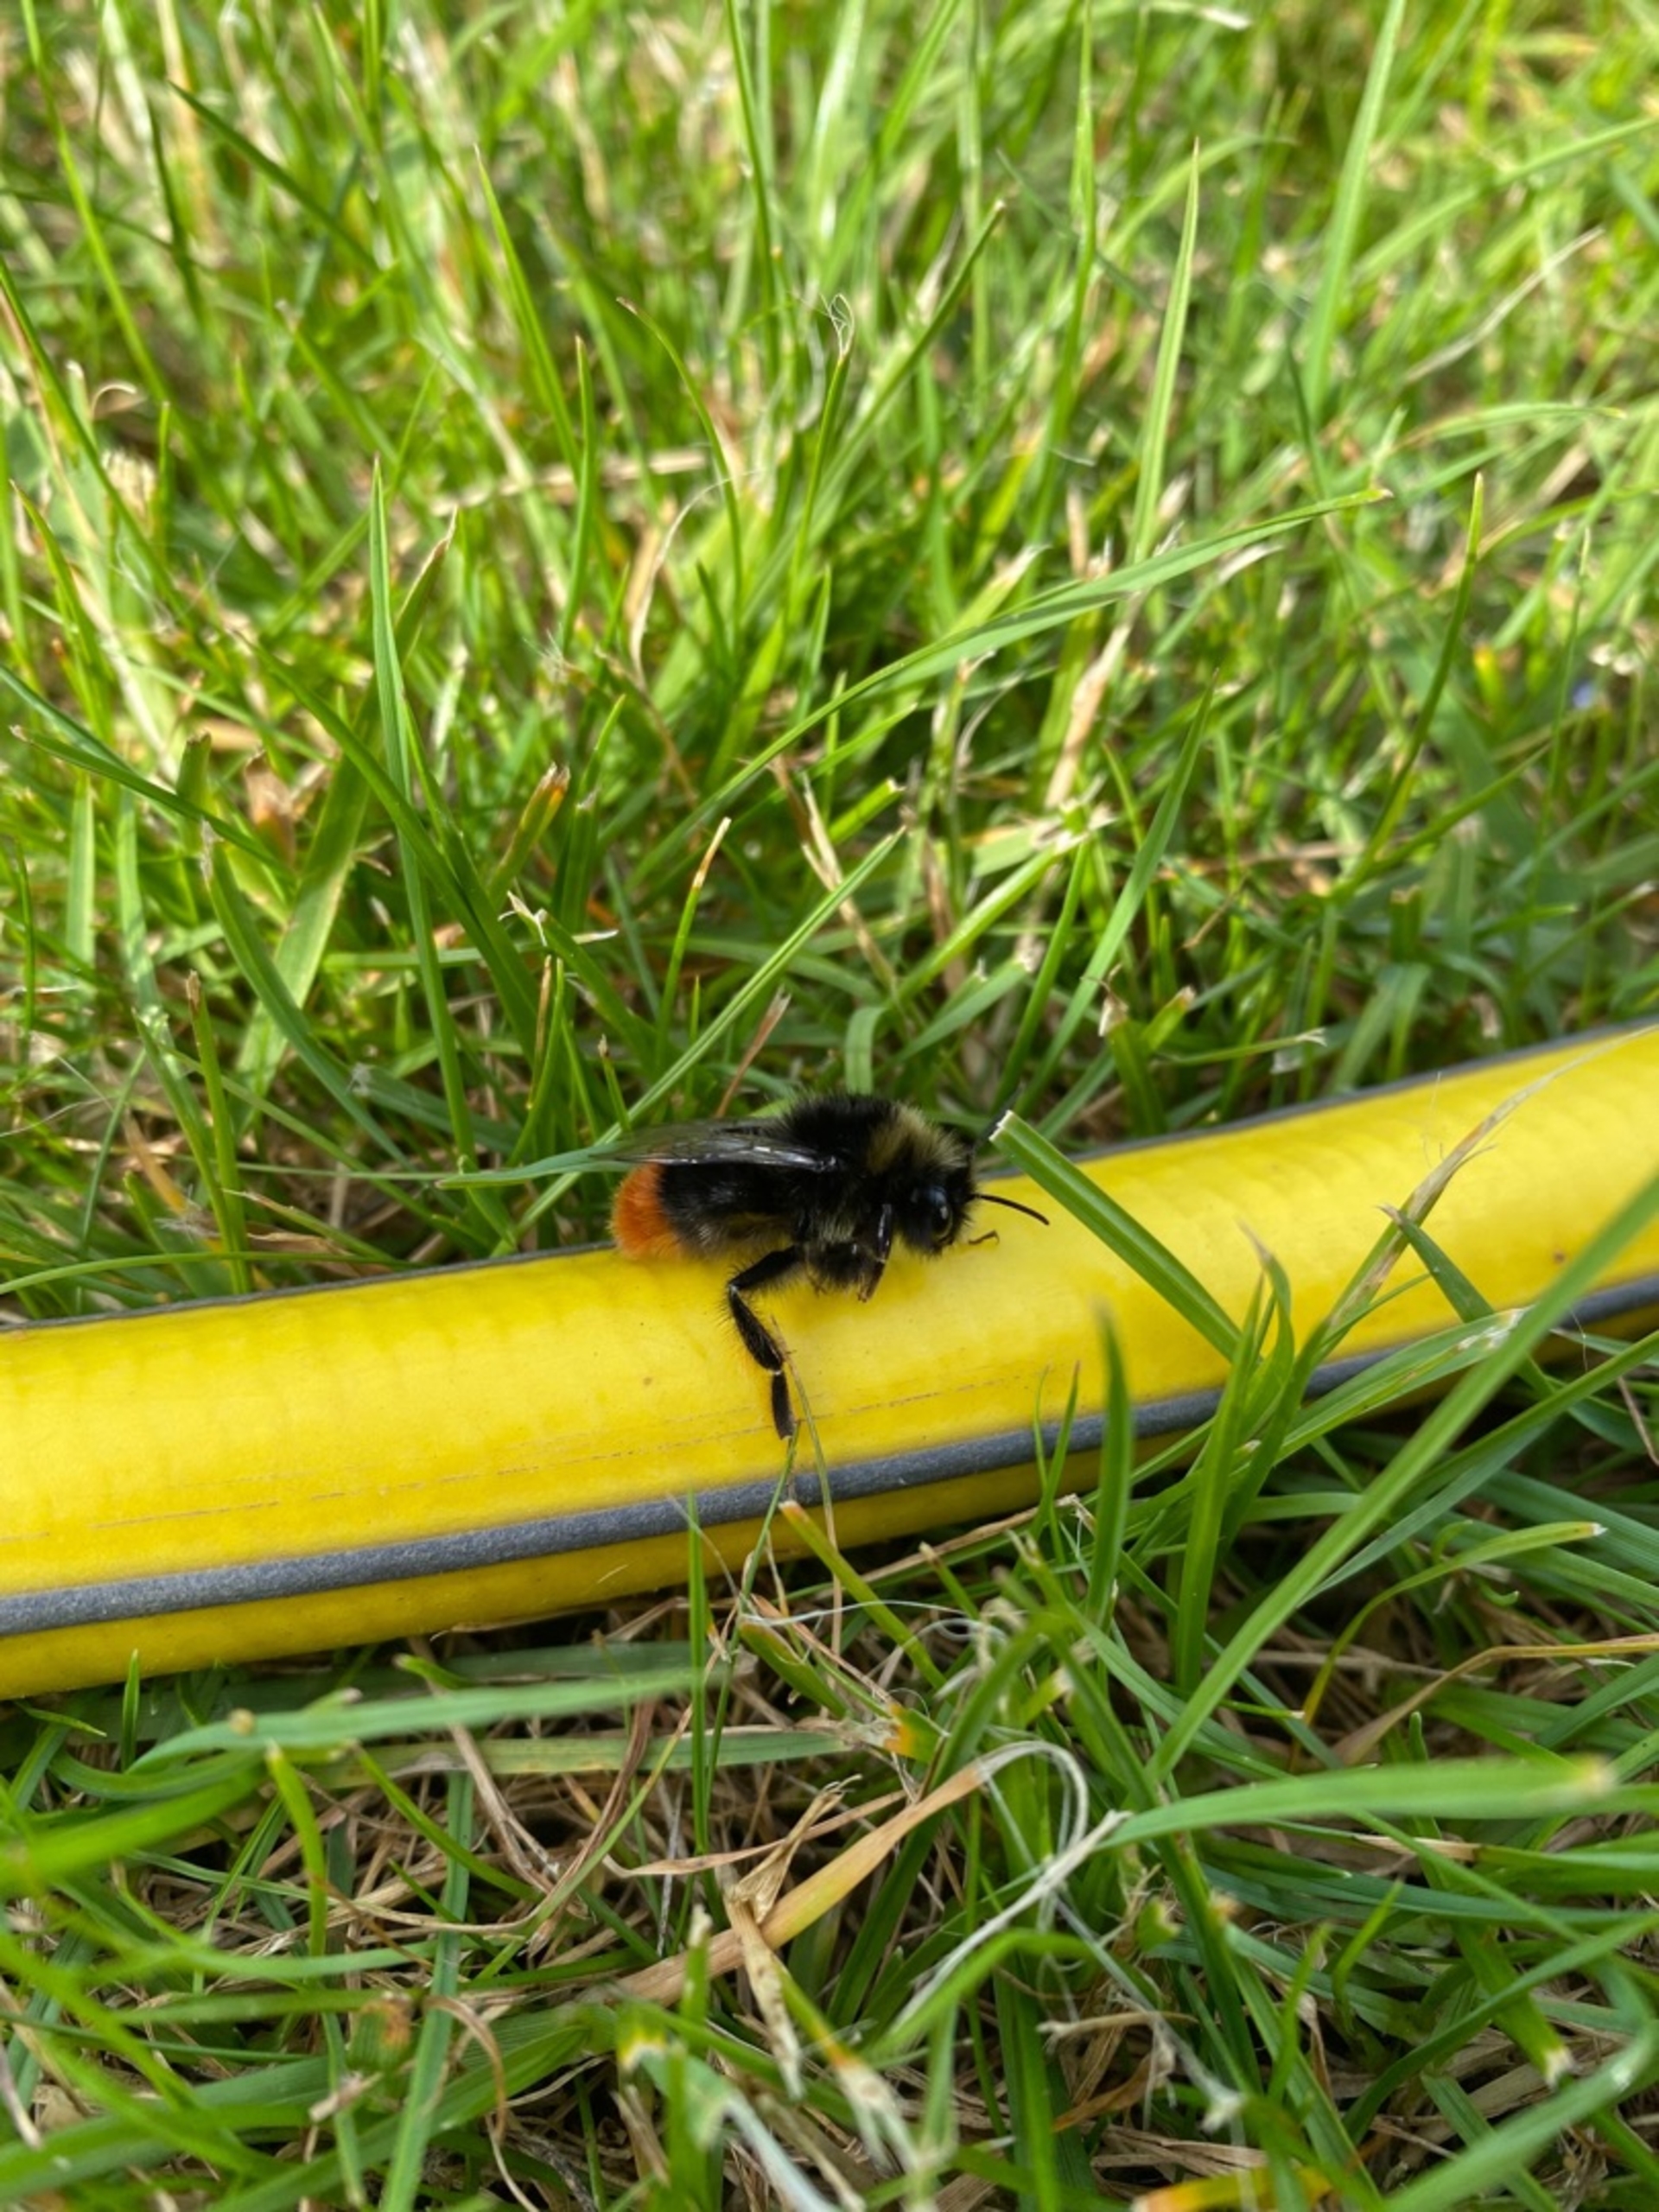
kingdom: Animalia
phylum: Arthropoda
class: Insecta
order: Hymenoptera
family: Apidae
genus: Bombus
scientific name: Bombus lapidarius
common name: Stenhumle
